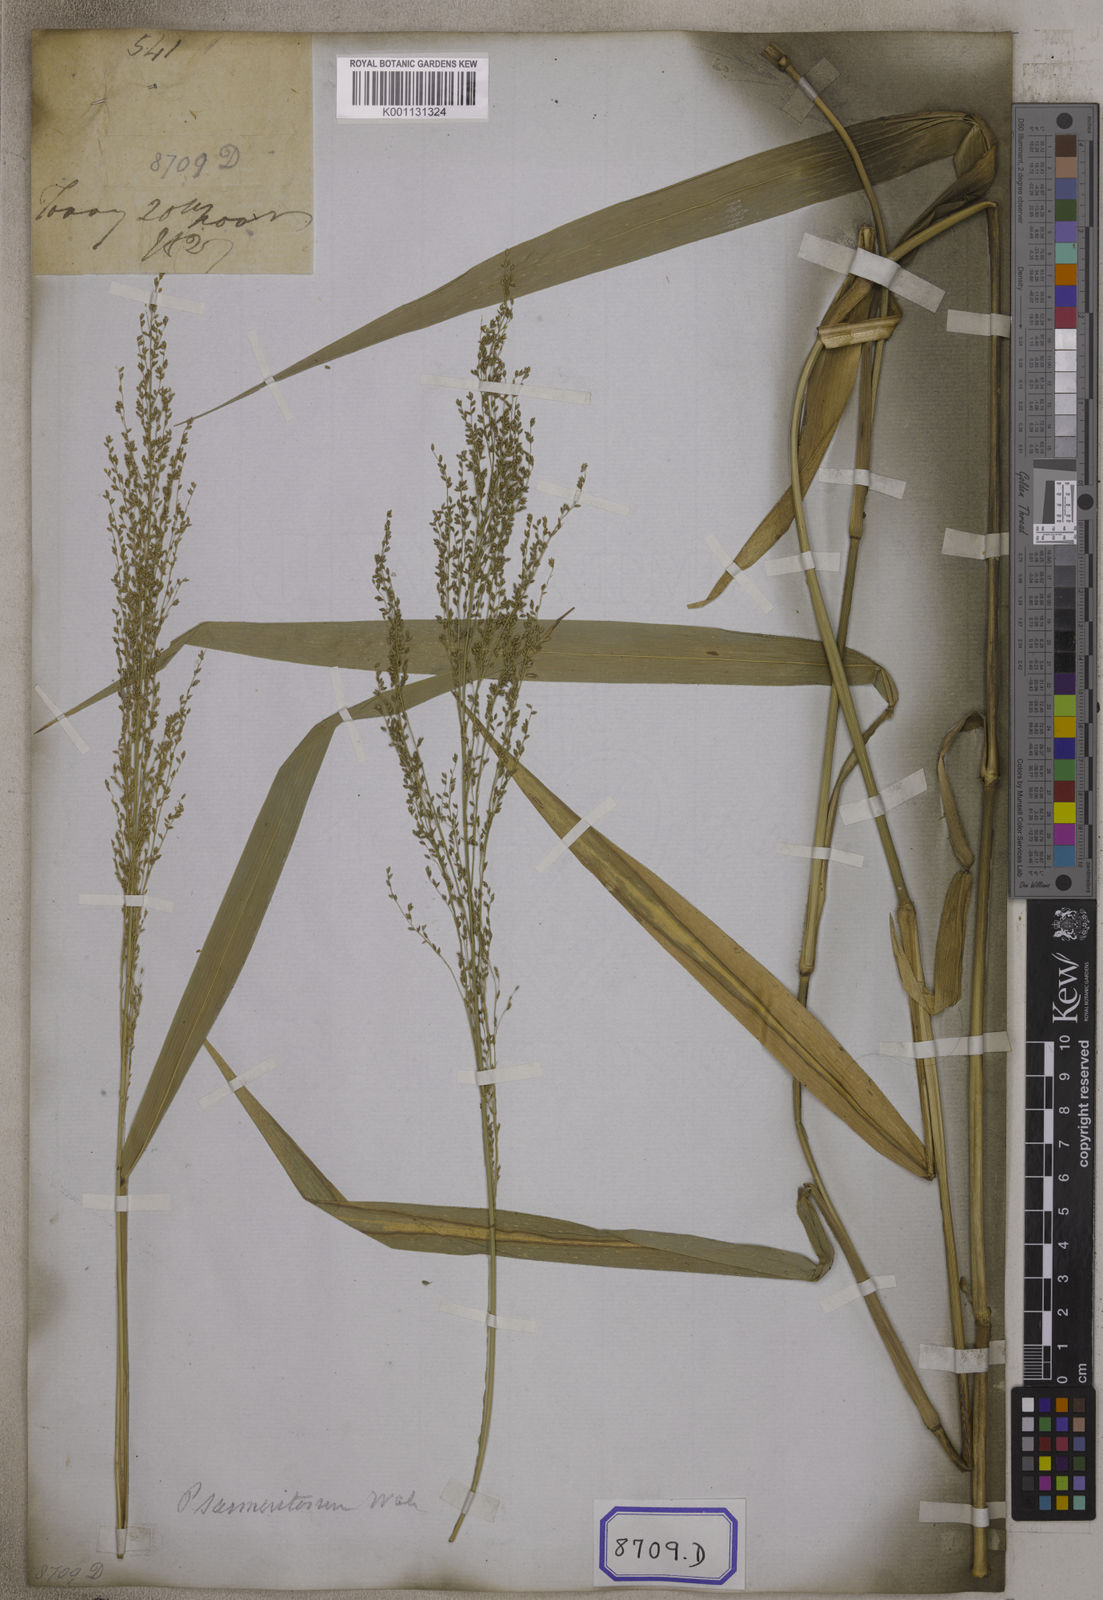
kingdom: Plantae
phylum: Tracheophyta
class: Liliopsida
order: Poales
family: Poaceae
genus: Panicum
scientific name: Panicum
